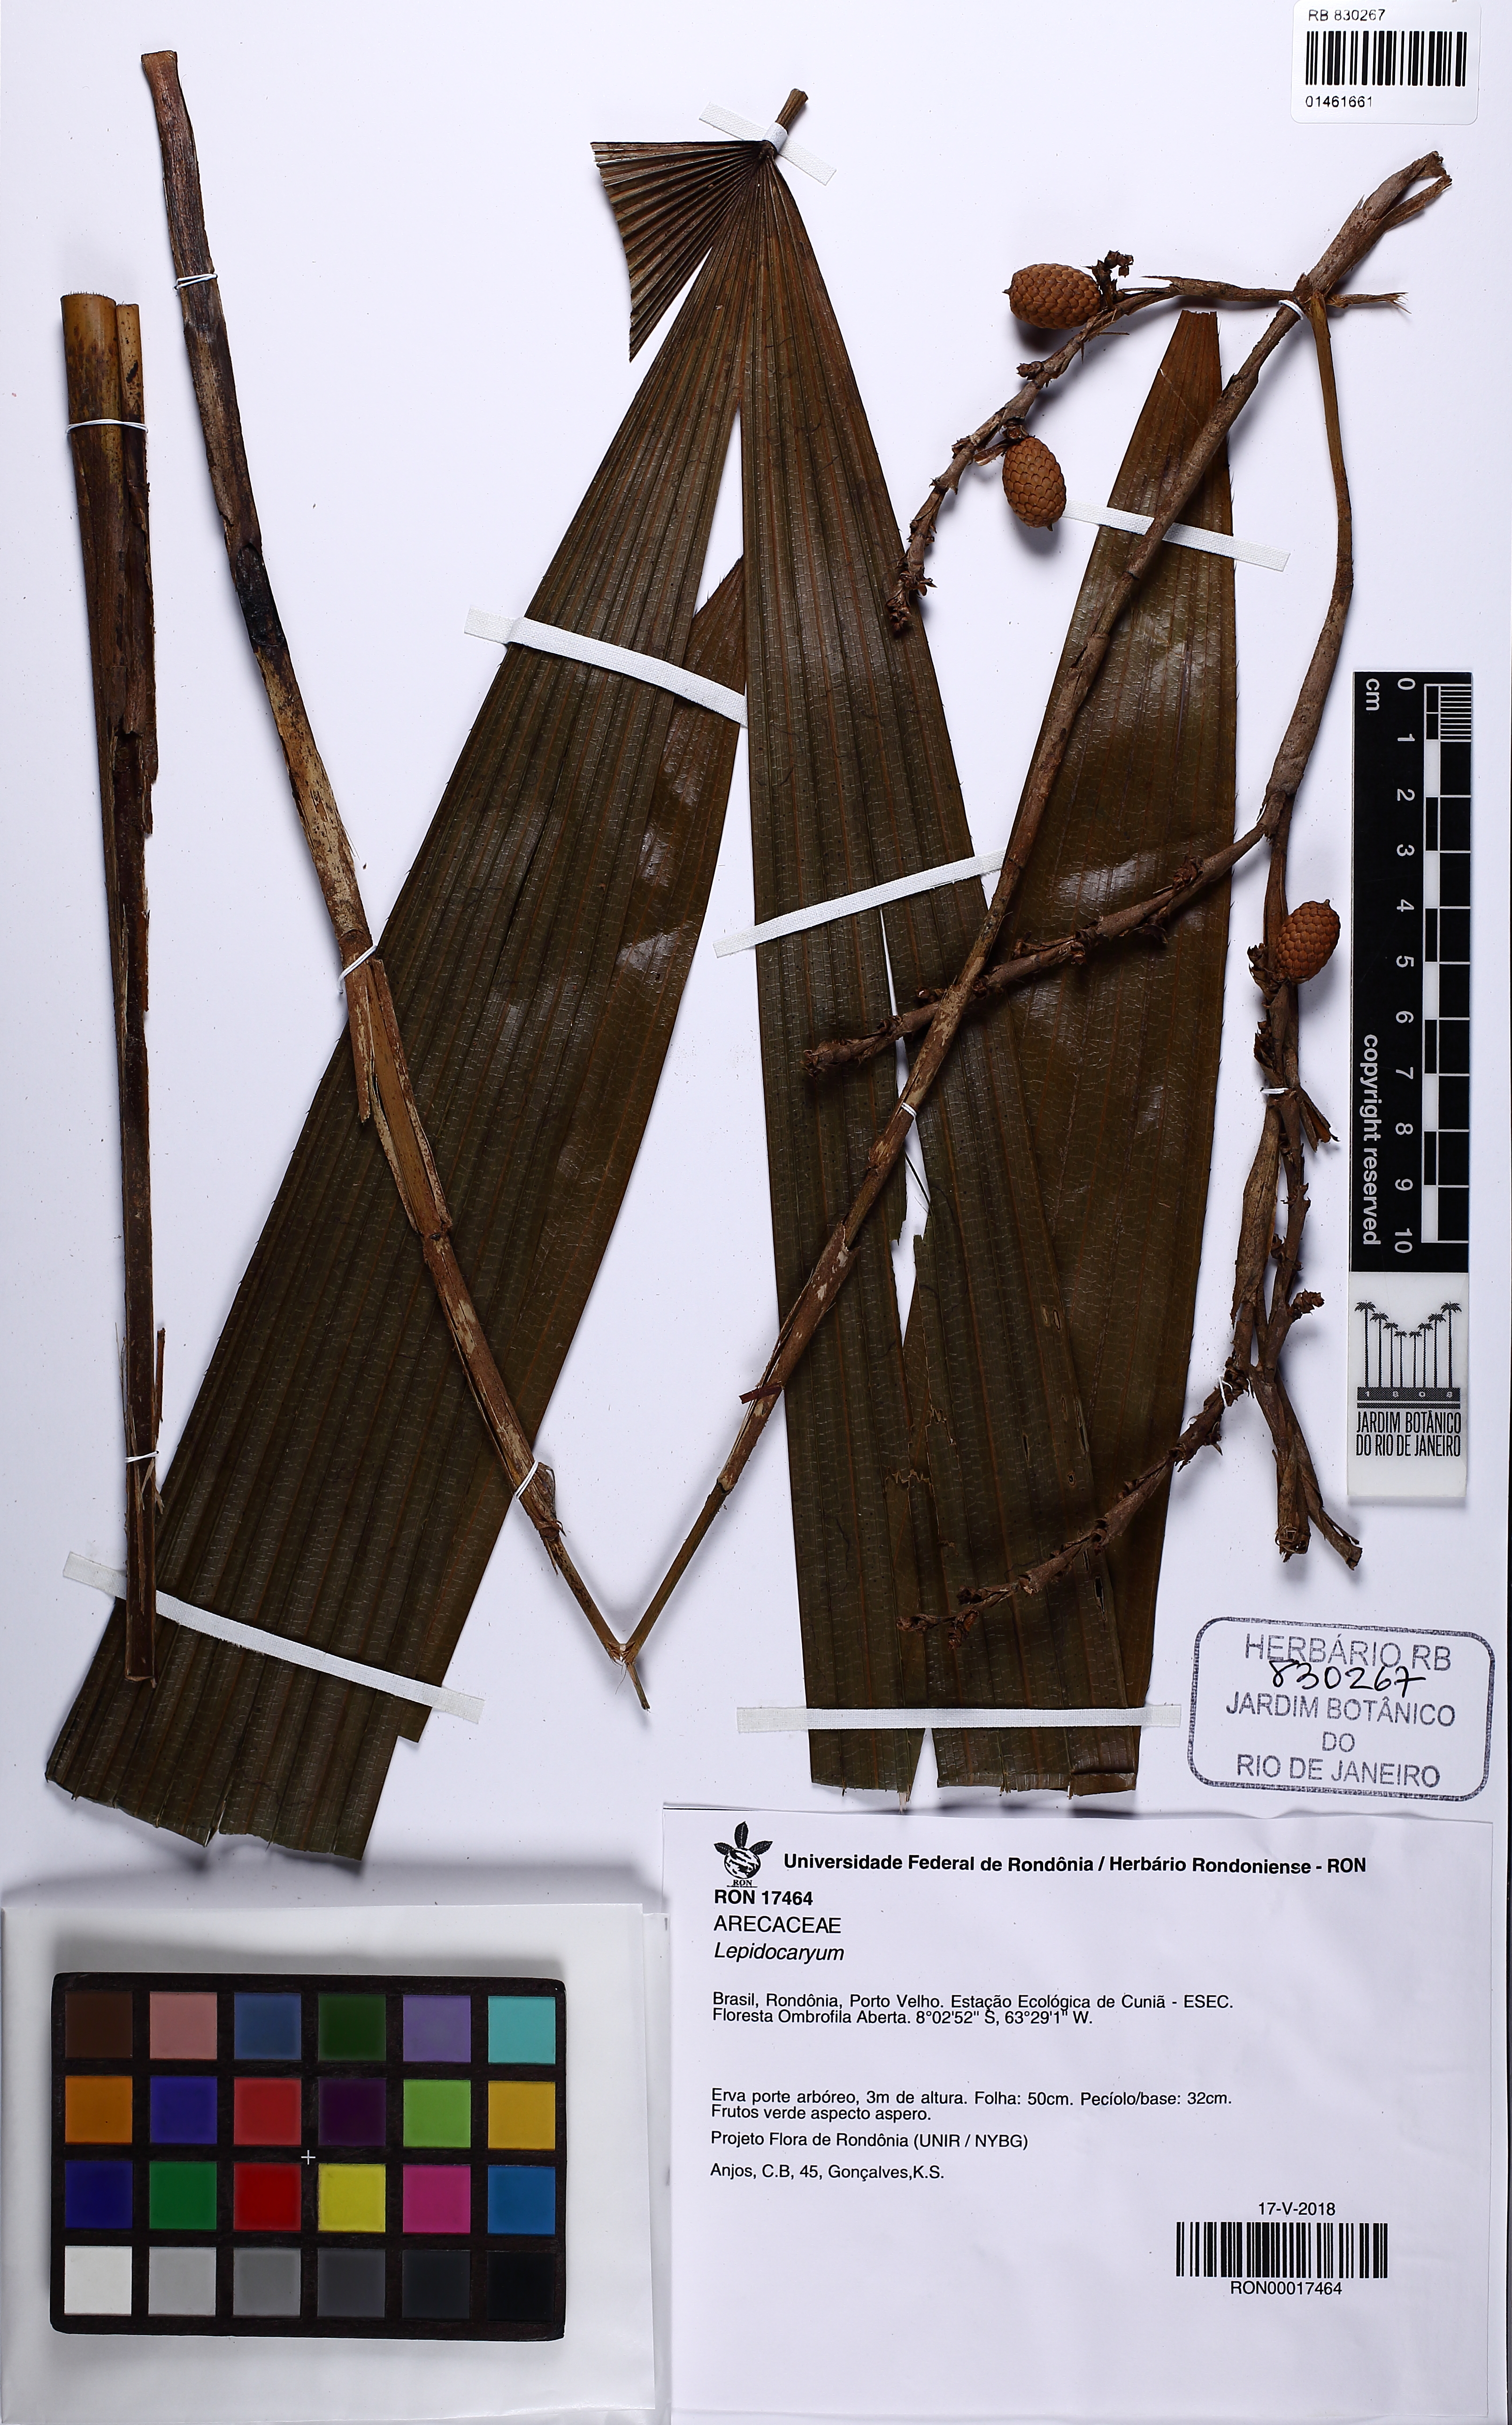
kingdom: Plantae
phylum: Tracheophyta
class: Liliopsida
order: Arecales
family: Arecaceae
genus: Lepidocaryum
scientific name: Lepidocaryum
